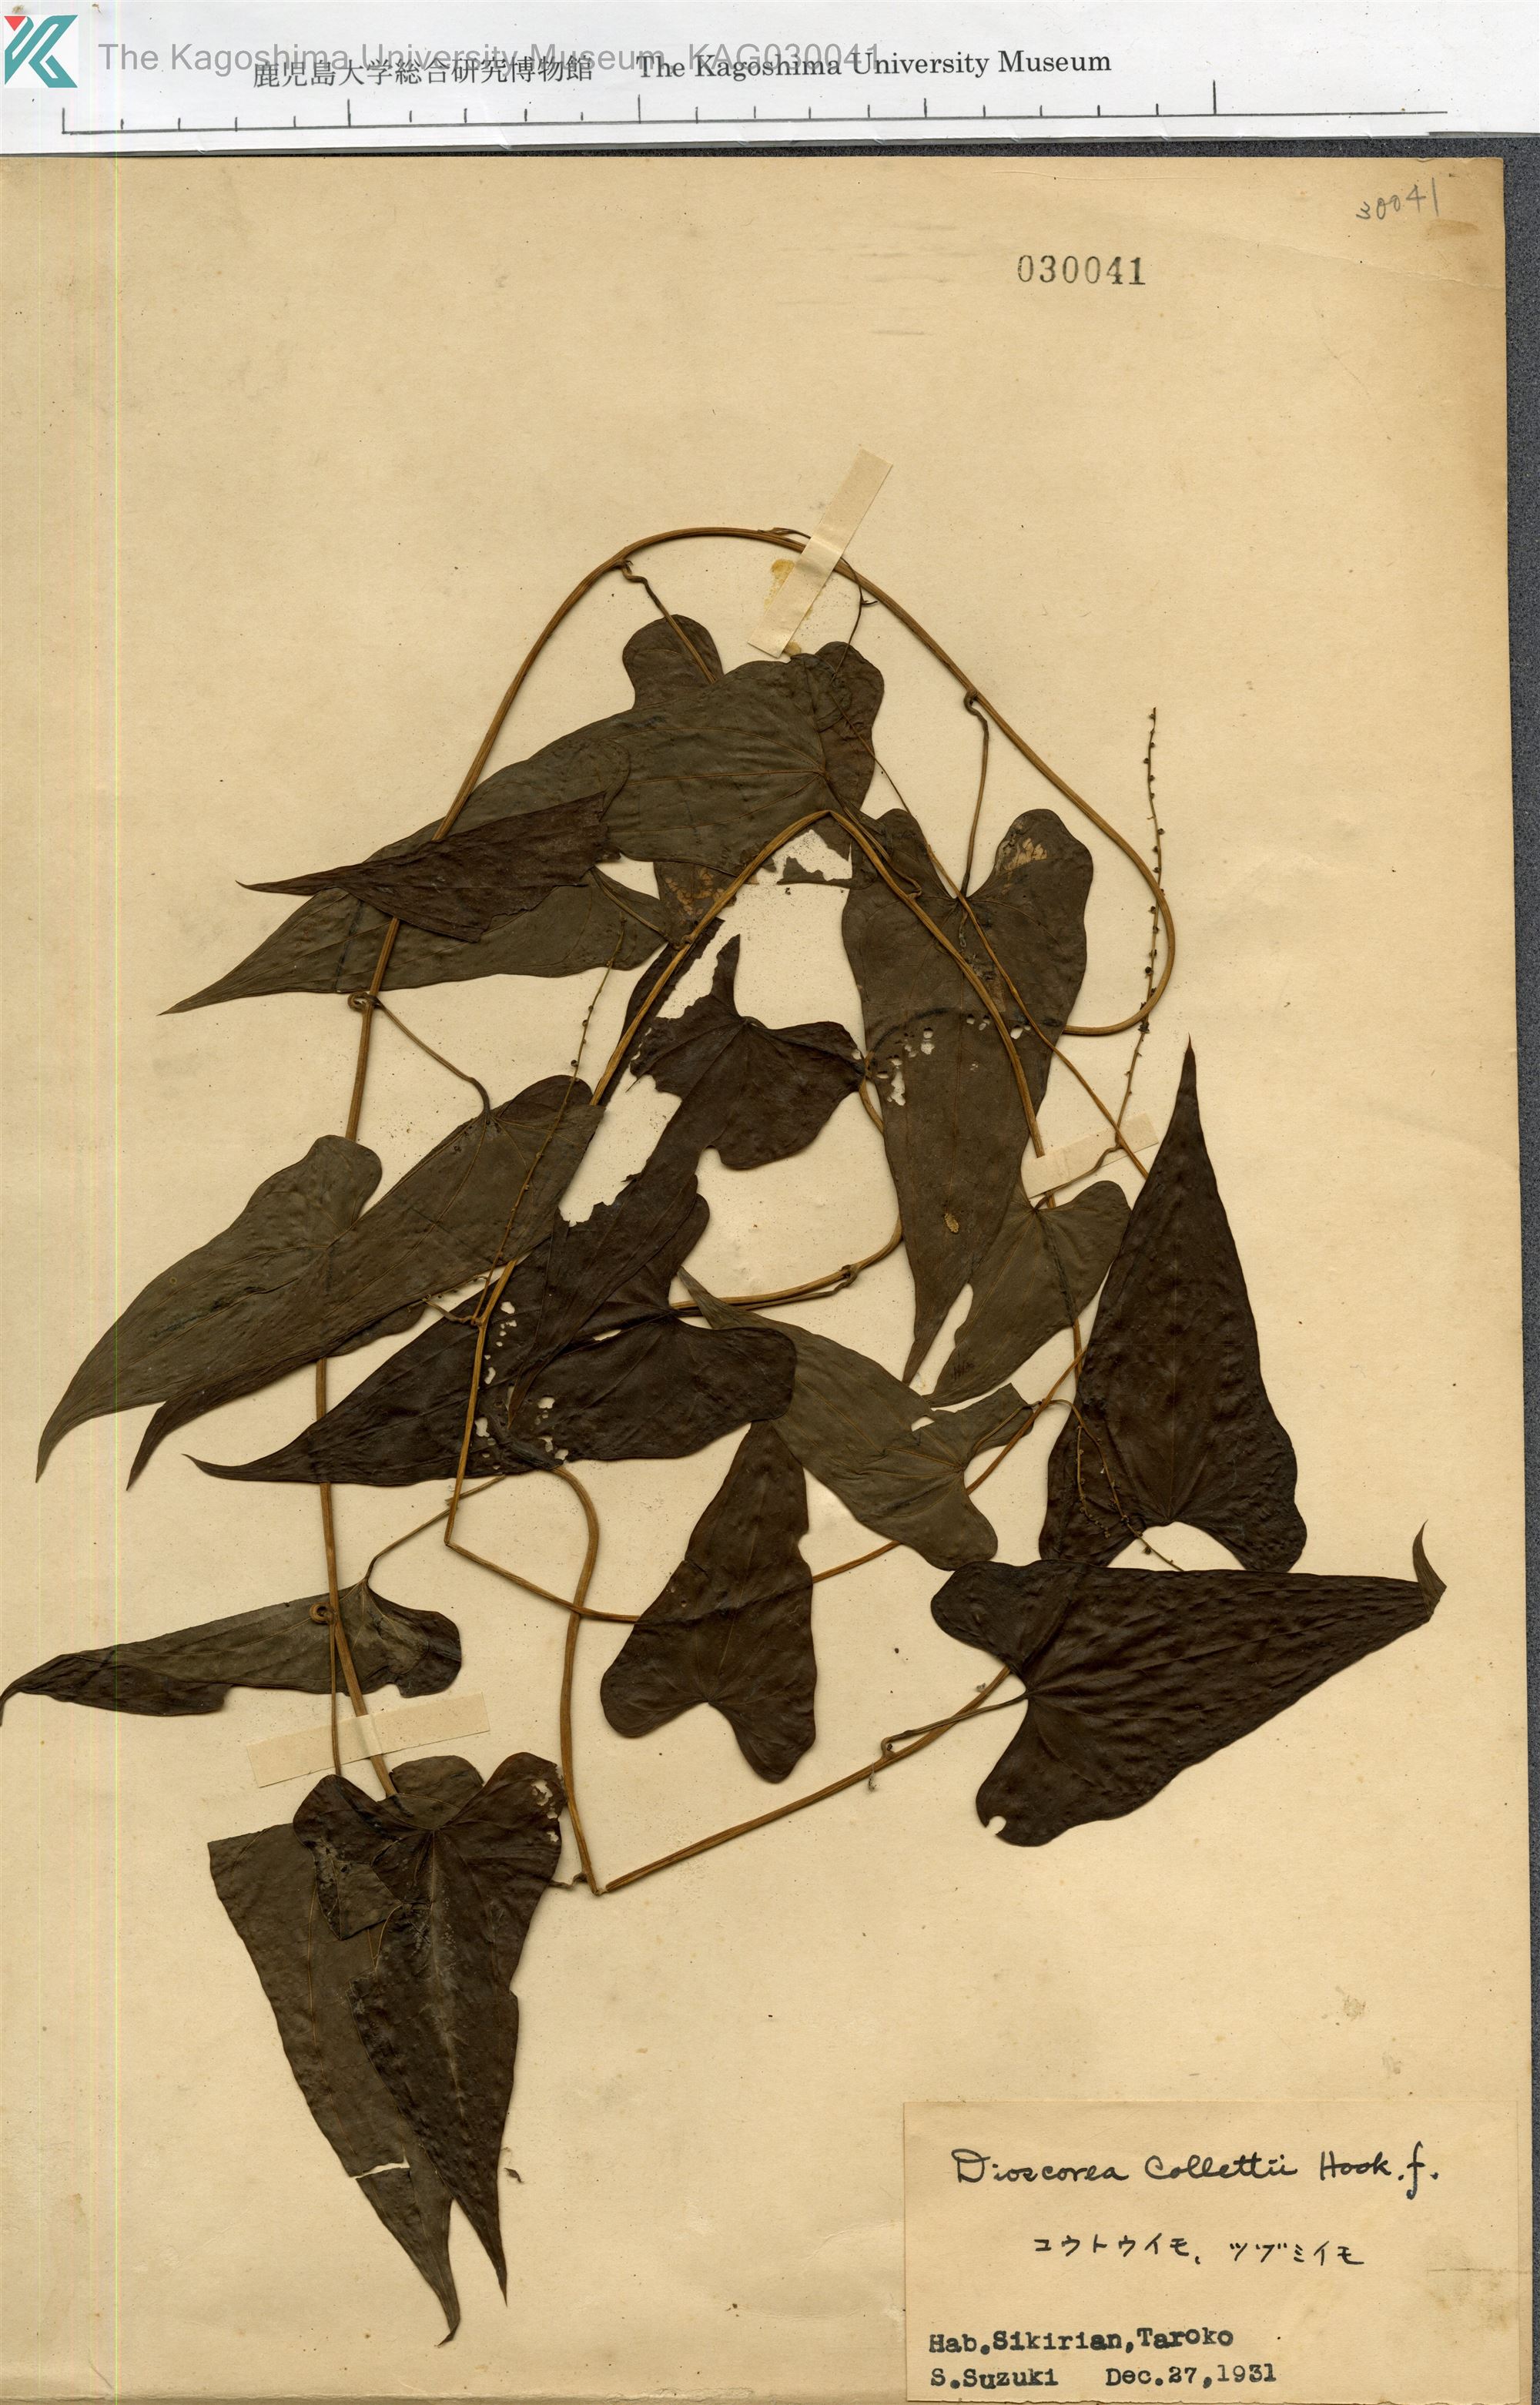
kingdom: Plantae
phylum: Tracheophyta
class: Liliopsida
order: Dioscoreales
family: Dioscoreaceae
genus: Dioscorea
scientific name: Dioscorea collettii
